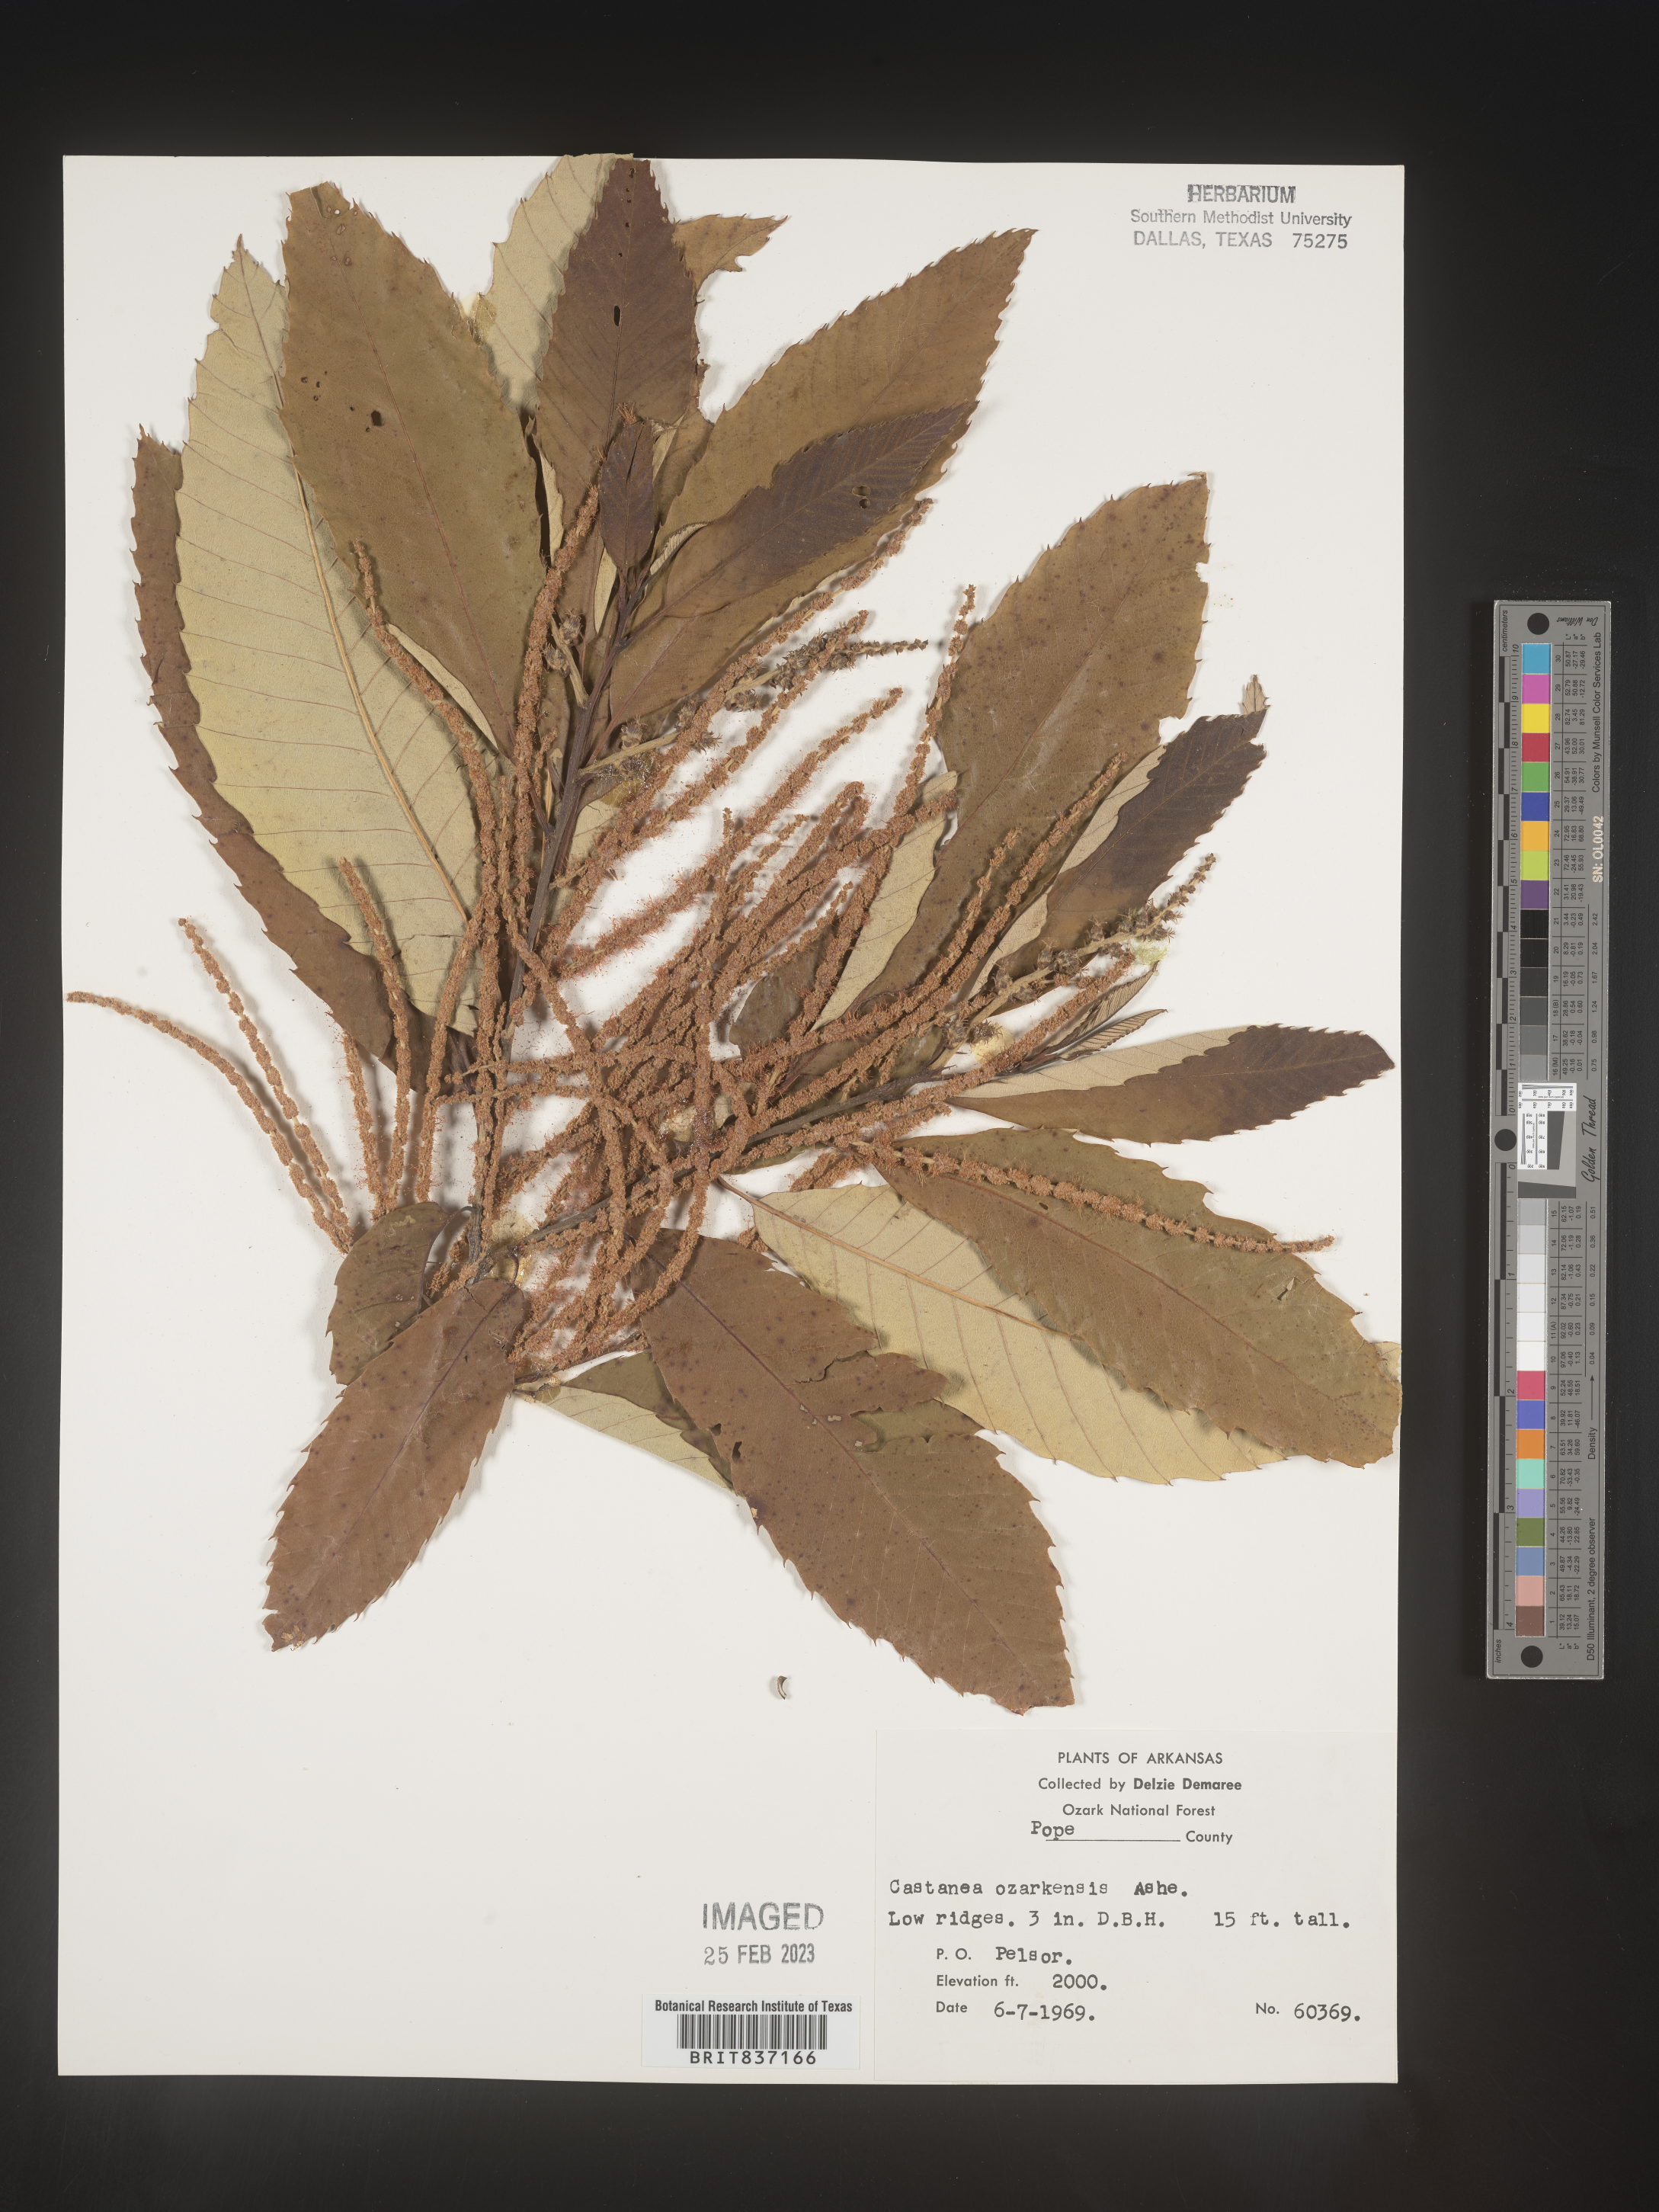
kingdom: Plantae
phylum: Tracheophyta
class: Magnoliopsida
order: Fagales
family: Fagaceae
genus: Castanea
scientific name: Castanea pumila
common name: Chinkapin
